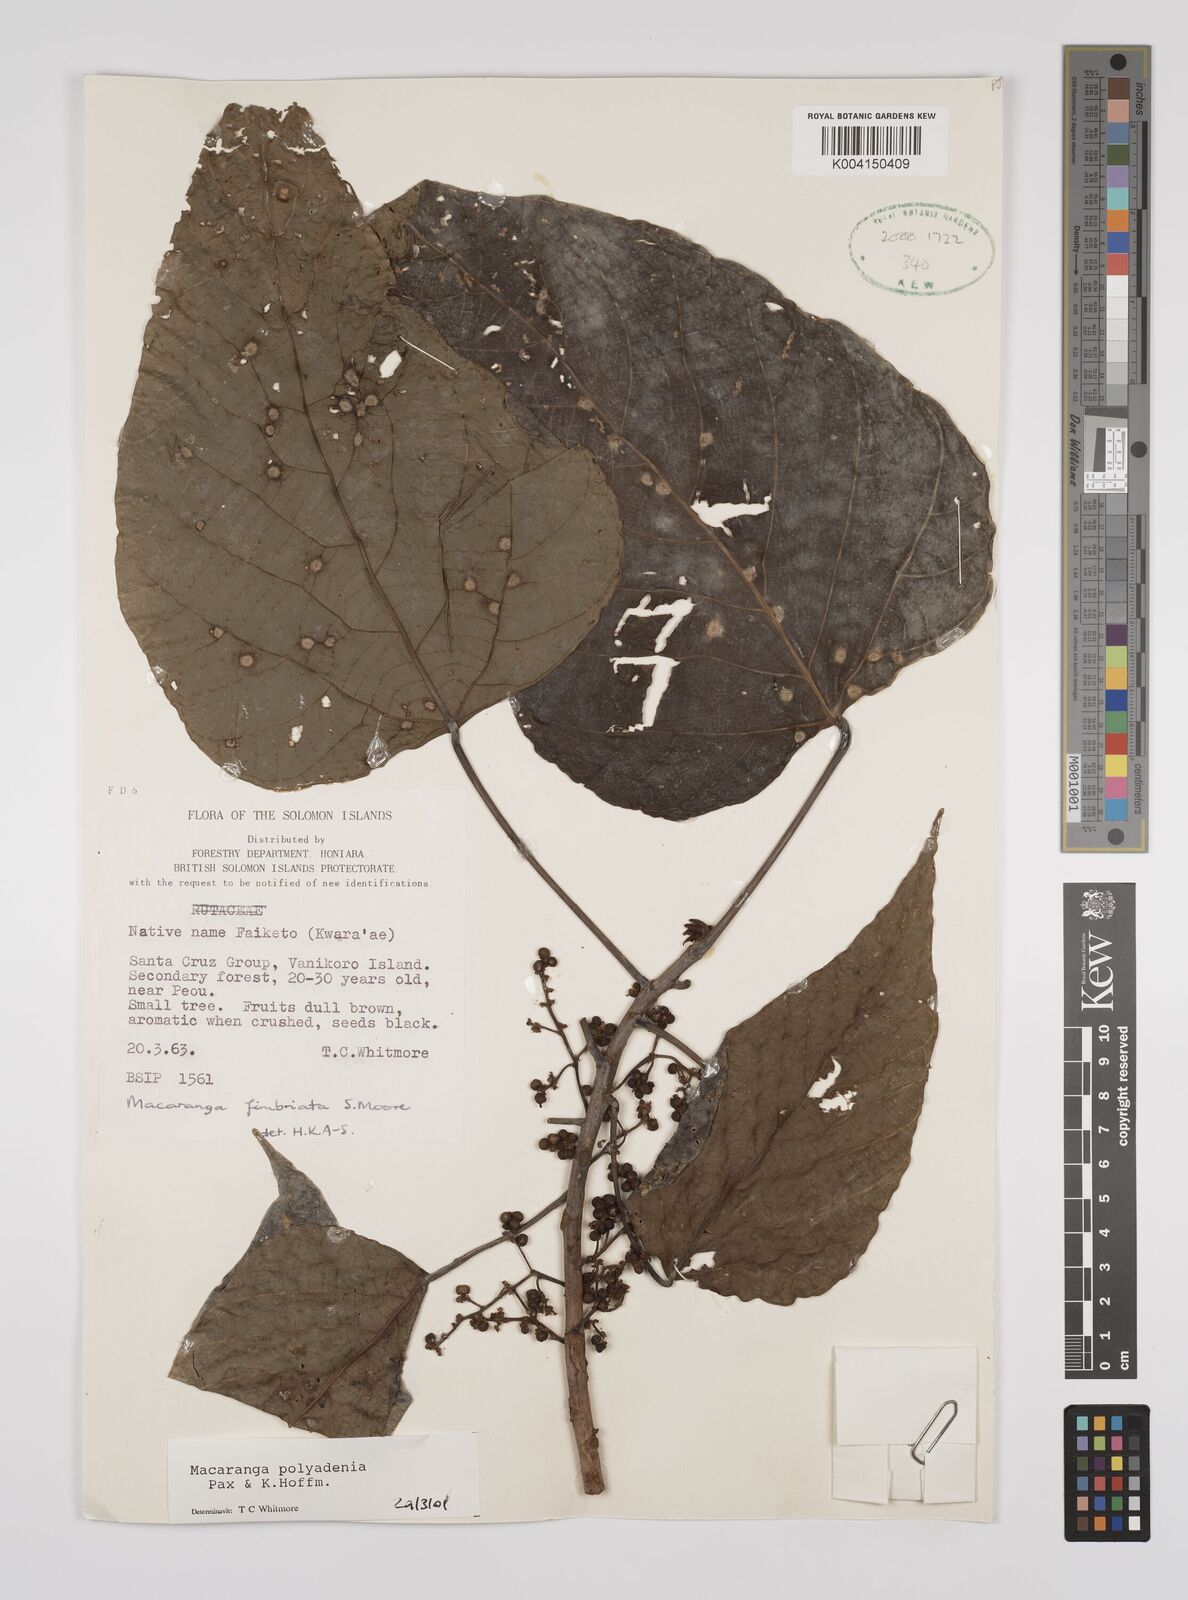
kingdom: Plantae
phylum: Tracheophyta
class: Magnoliopsida
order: Malpighiales
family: Euphorbiaceae
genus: Macaranga
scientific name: Macaranga polyadenia
